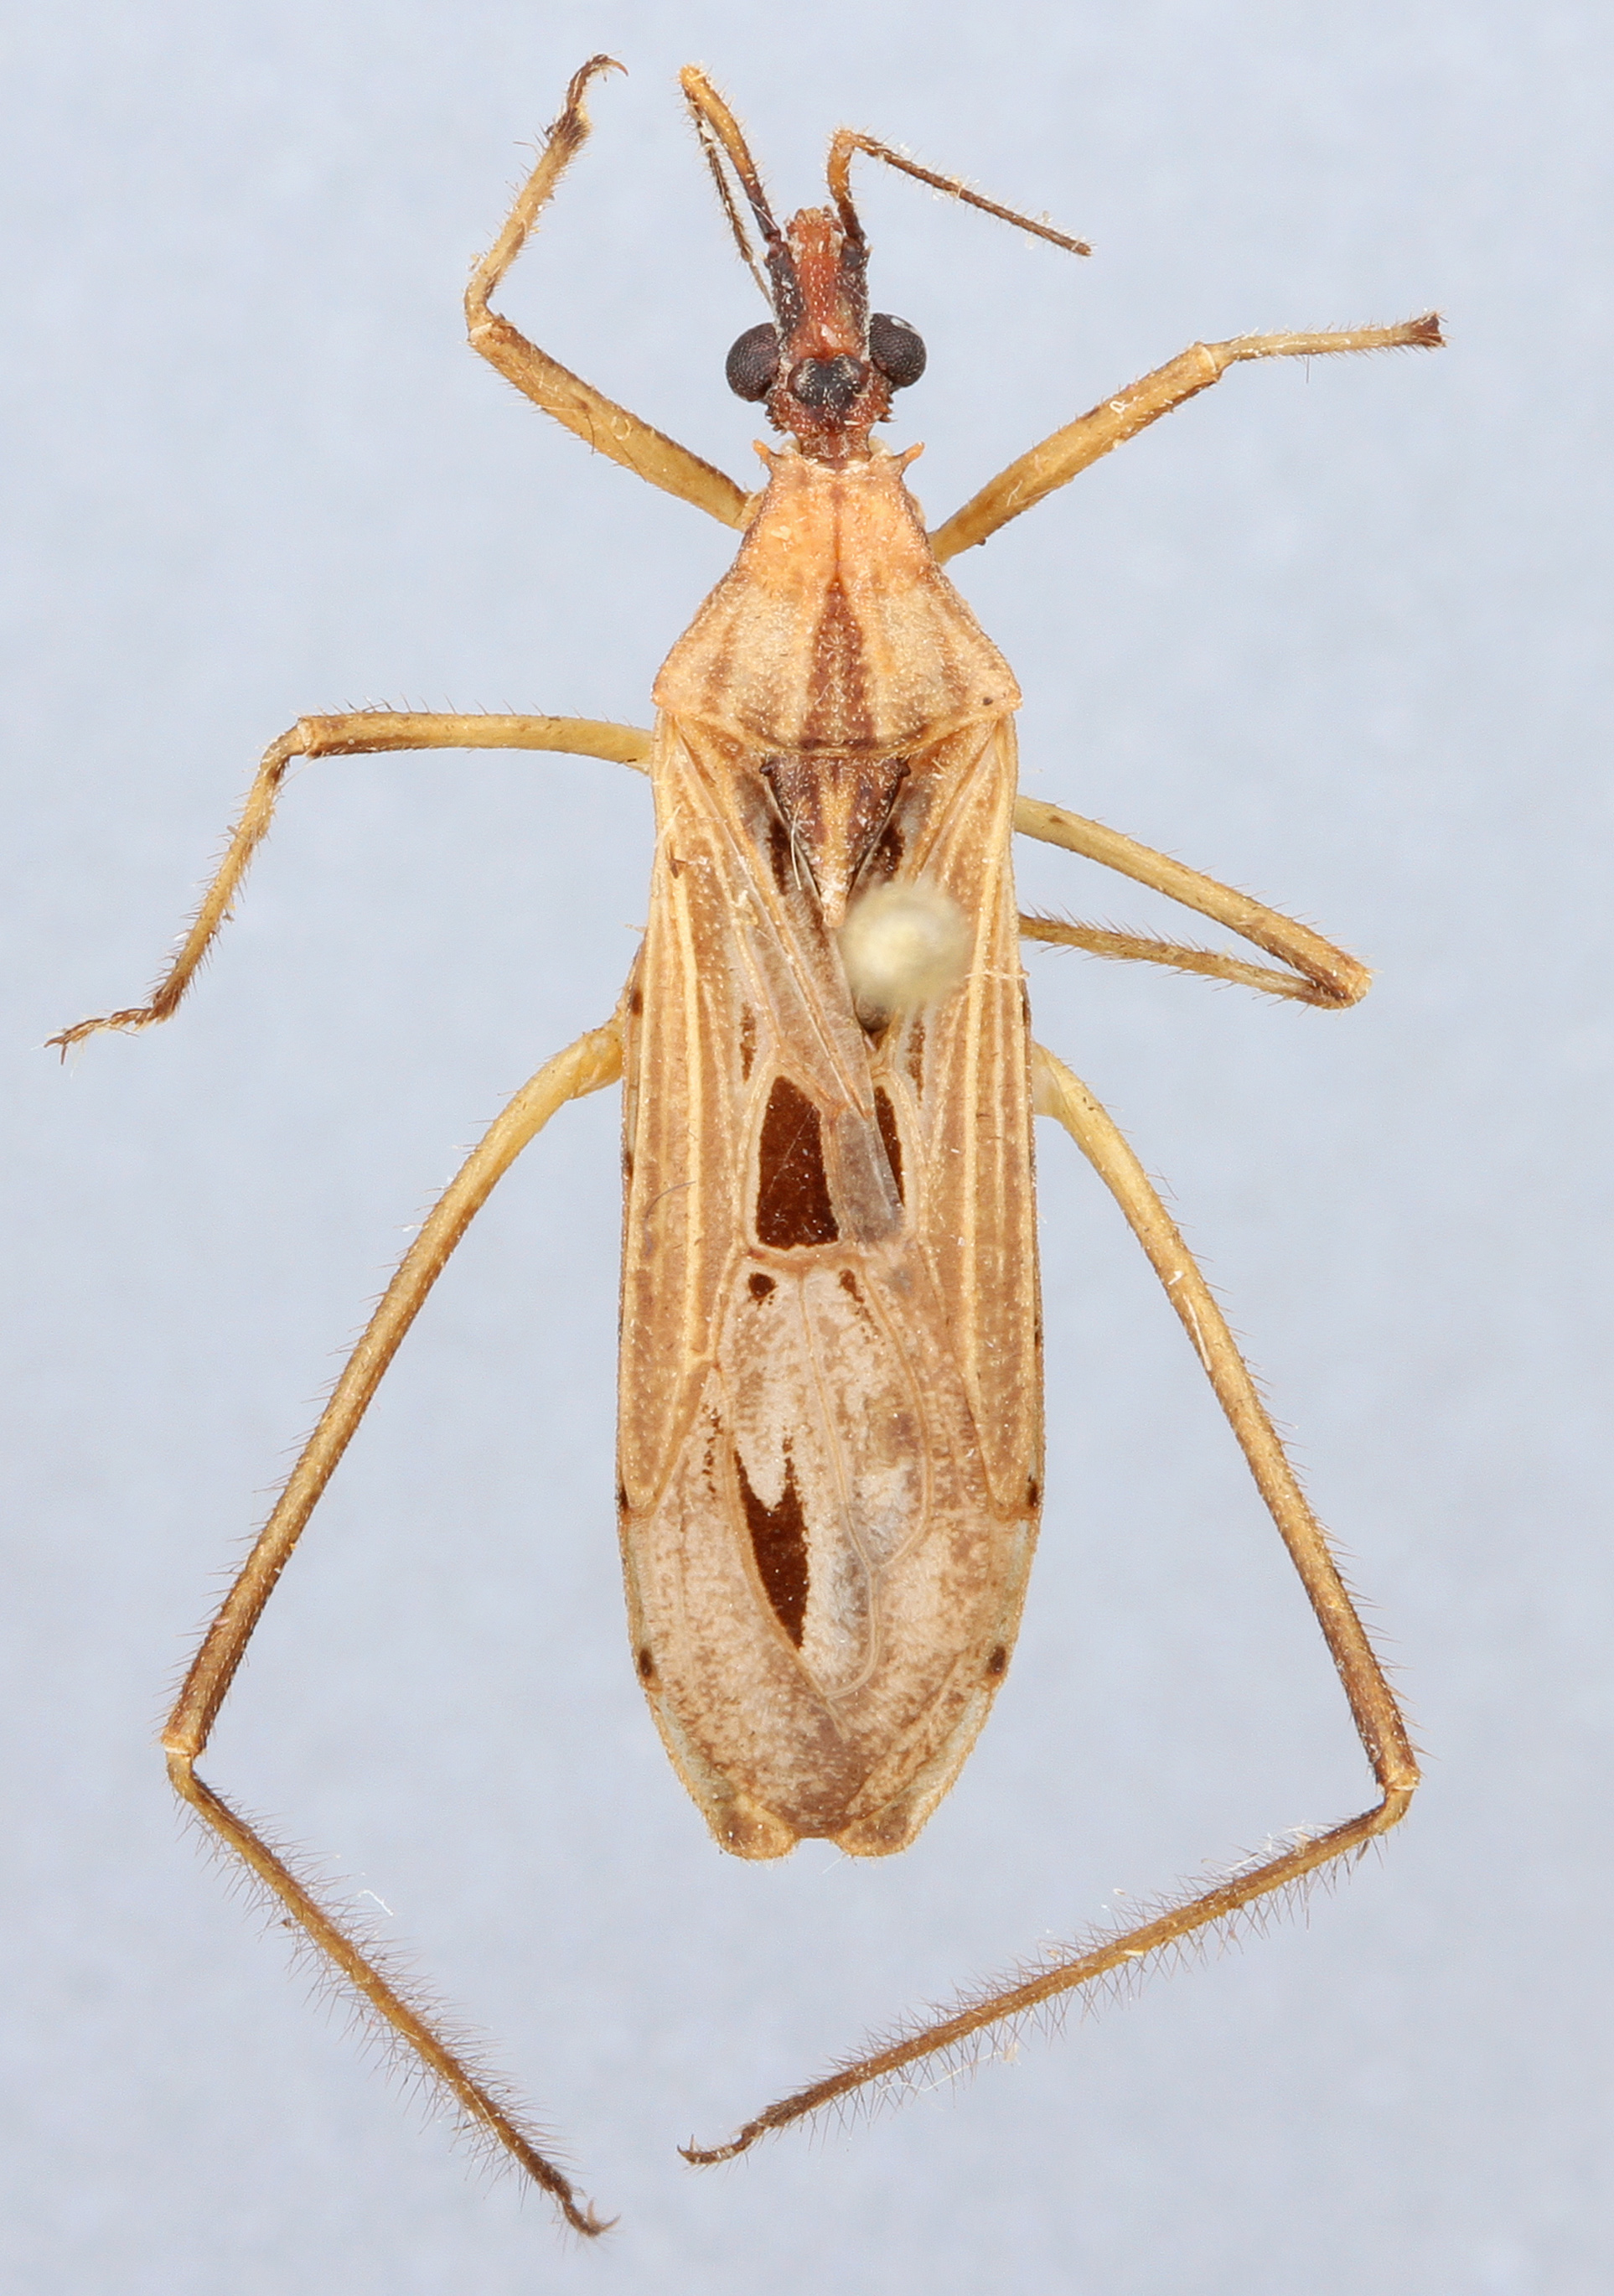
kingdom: Animalia
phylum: Arthropoda
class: Insecta
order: Hemiptera
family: Reduviidae
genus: Narvesus
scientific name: Narvesus carolinensis
